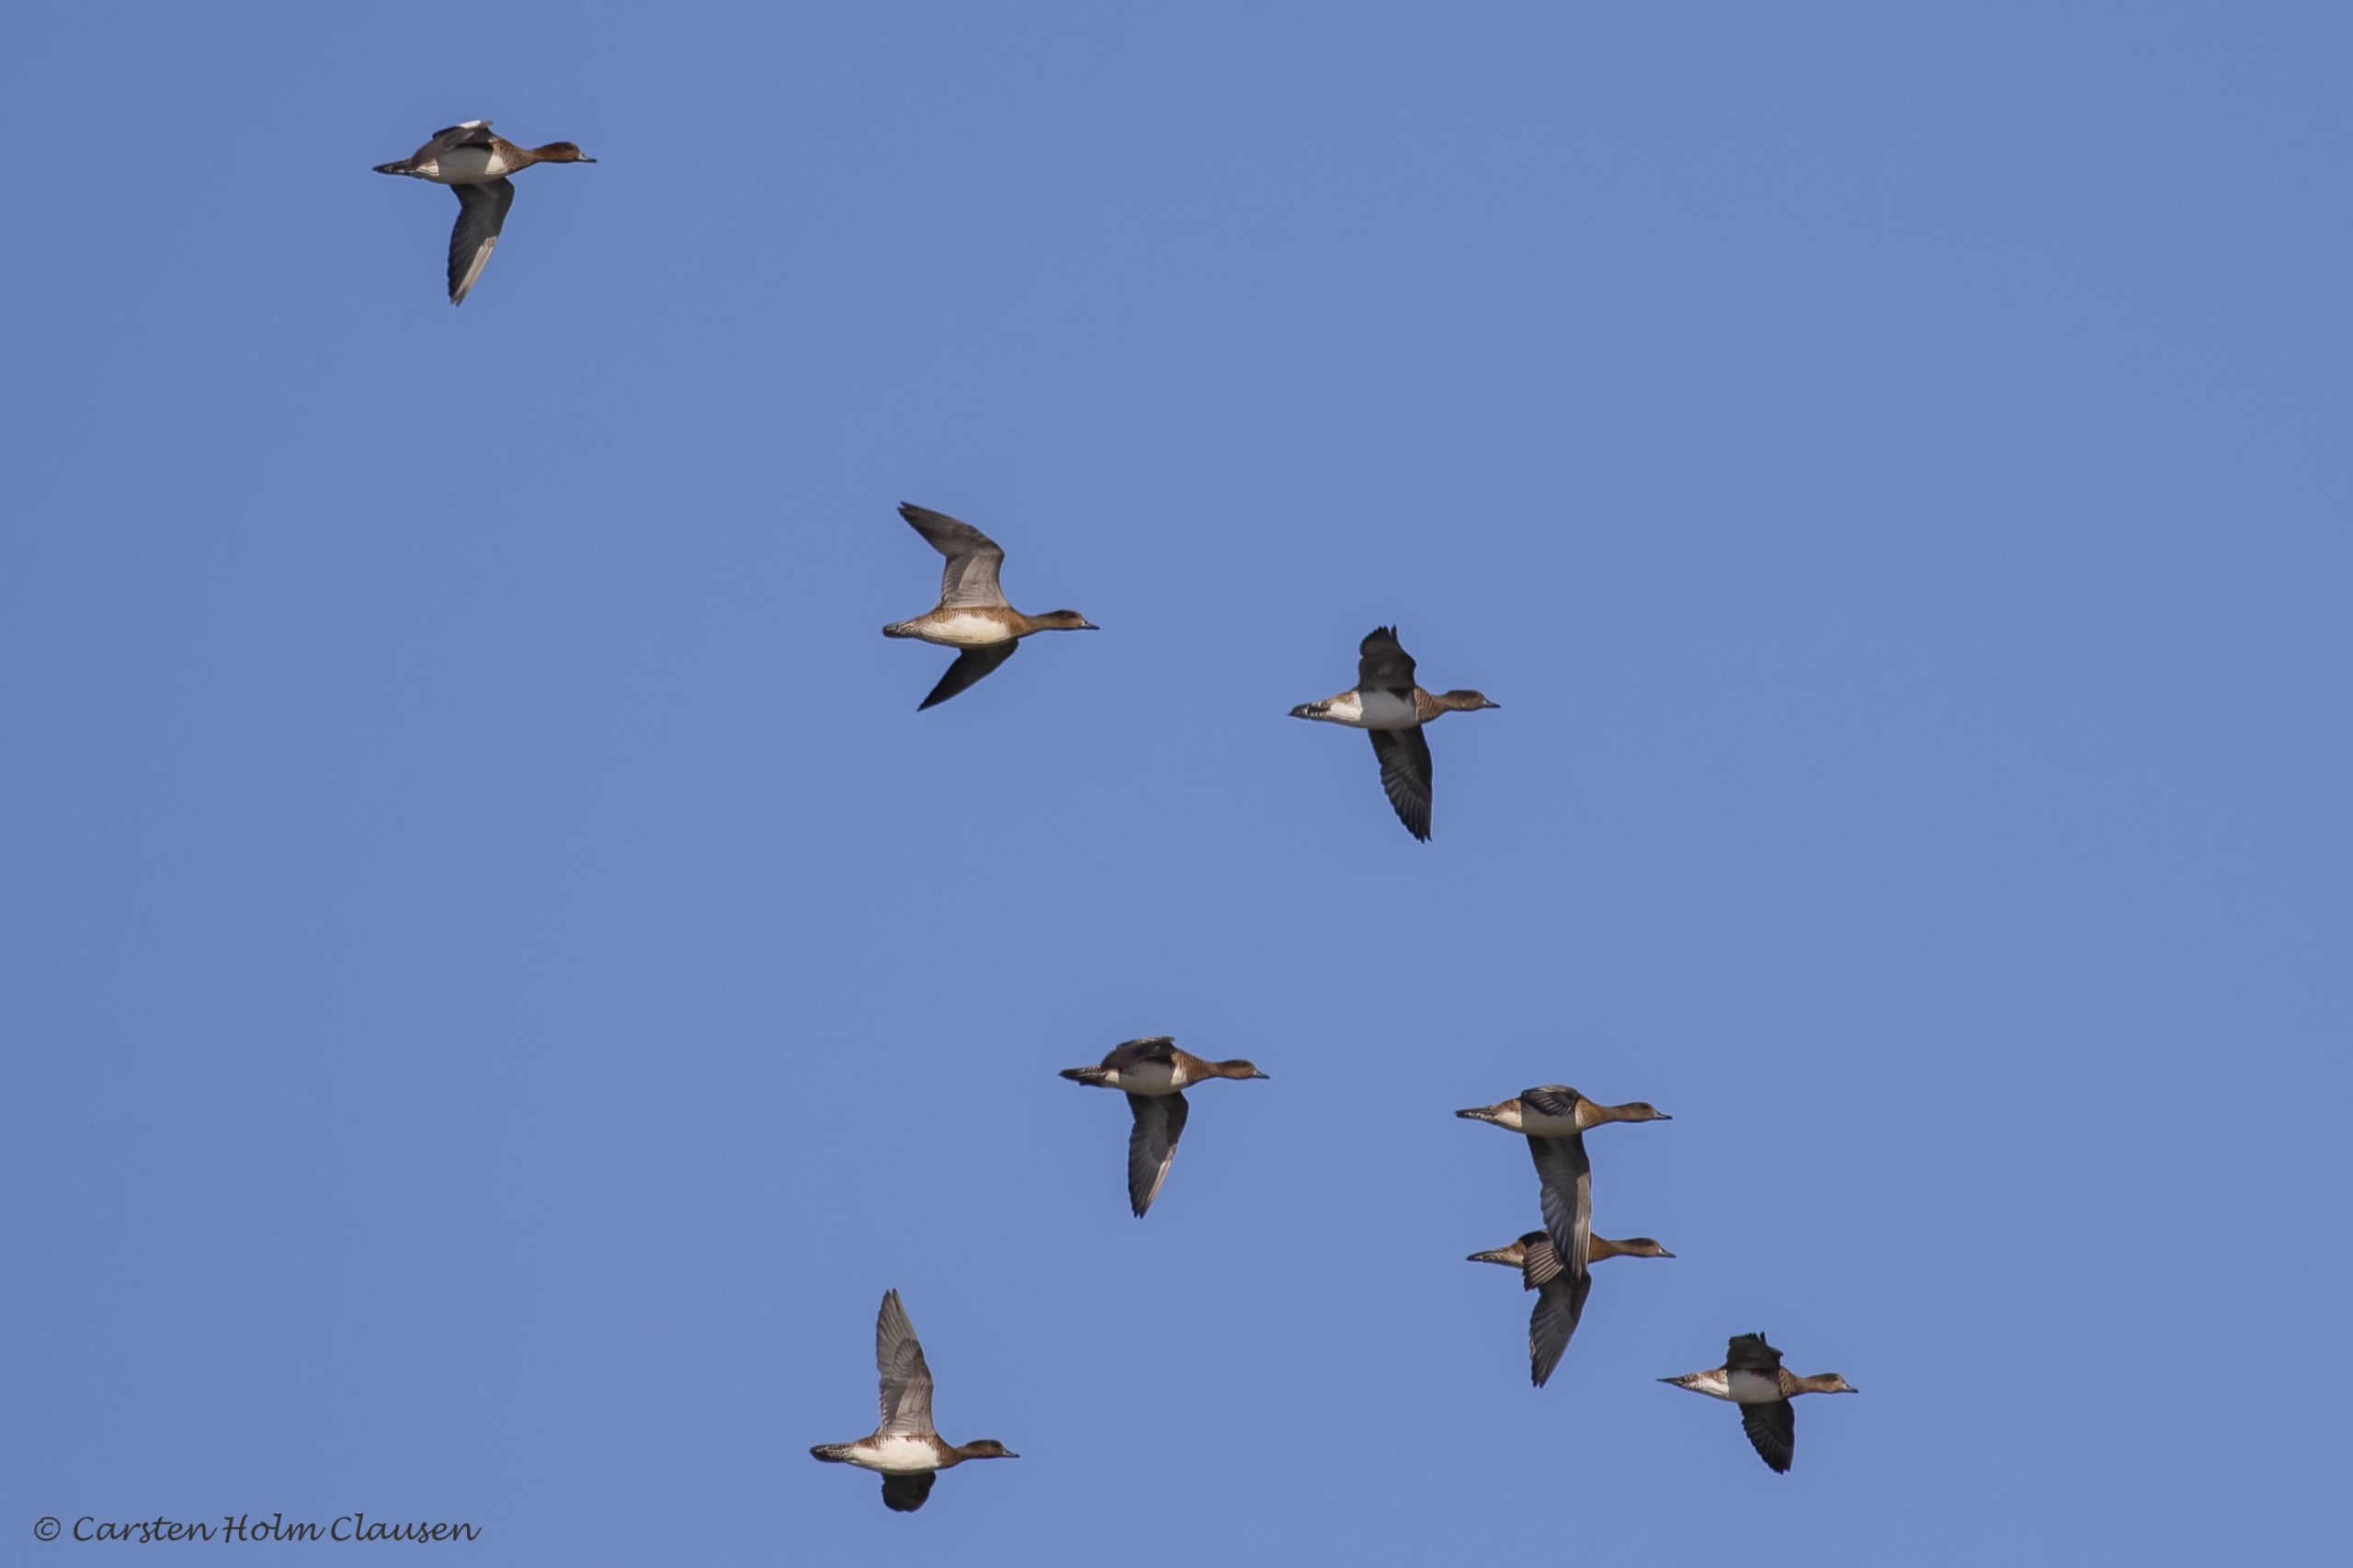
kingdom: Animalia
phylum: Chordata
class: Aves
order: Anseriformes
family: Anatidae
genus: Mareca
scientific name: Mareca penelope
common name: Pibeand
